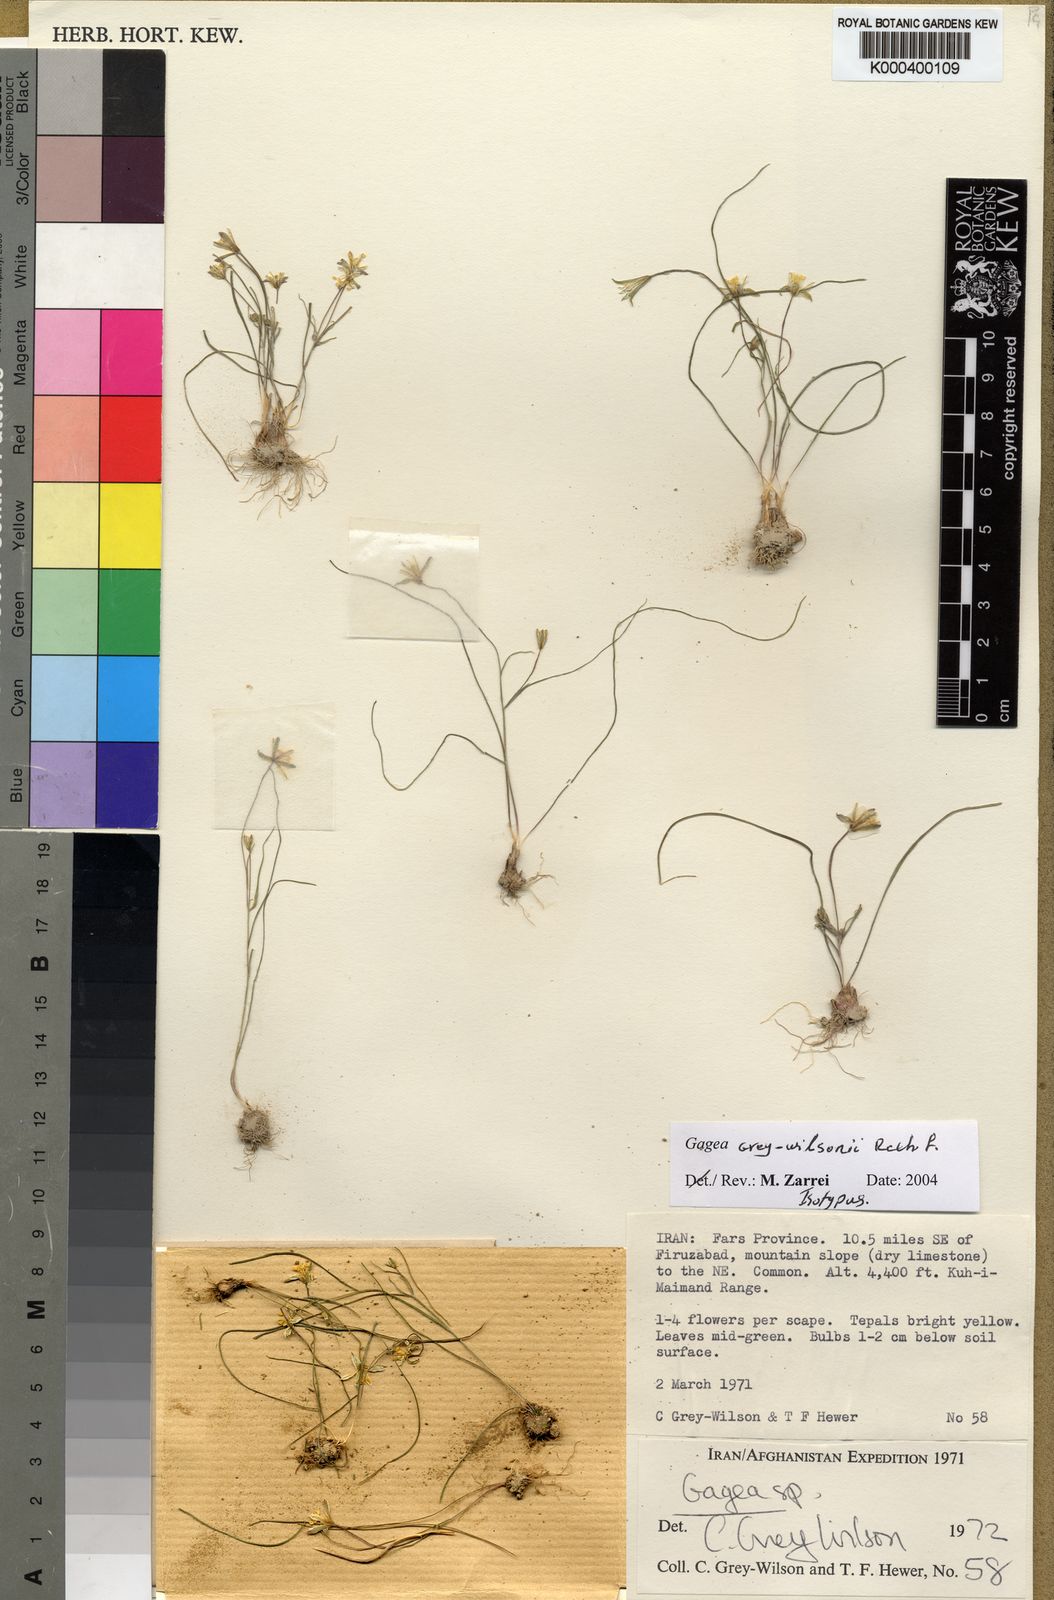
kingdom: Plantae
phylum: Tracheophyta
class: Liliopsida
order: Liliales
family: Liliaceae
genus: Gagea
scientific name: Gagea chlorantha
